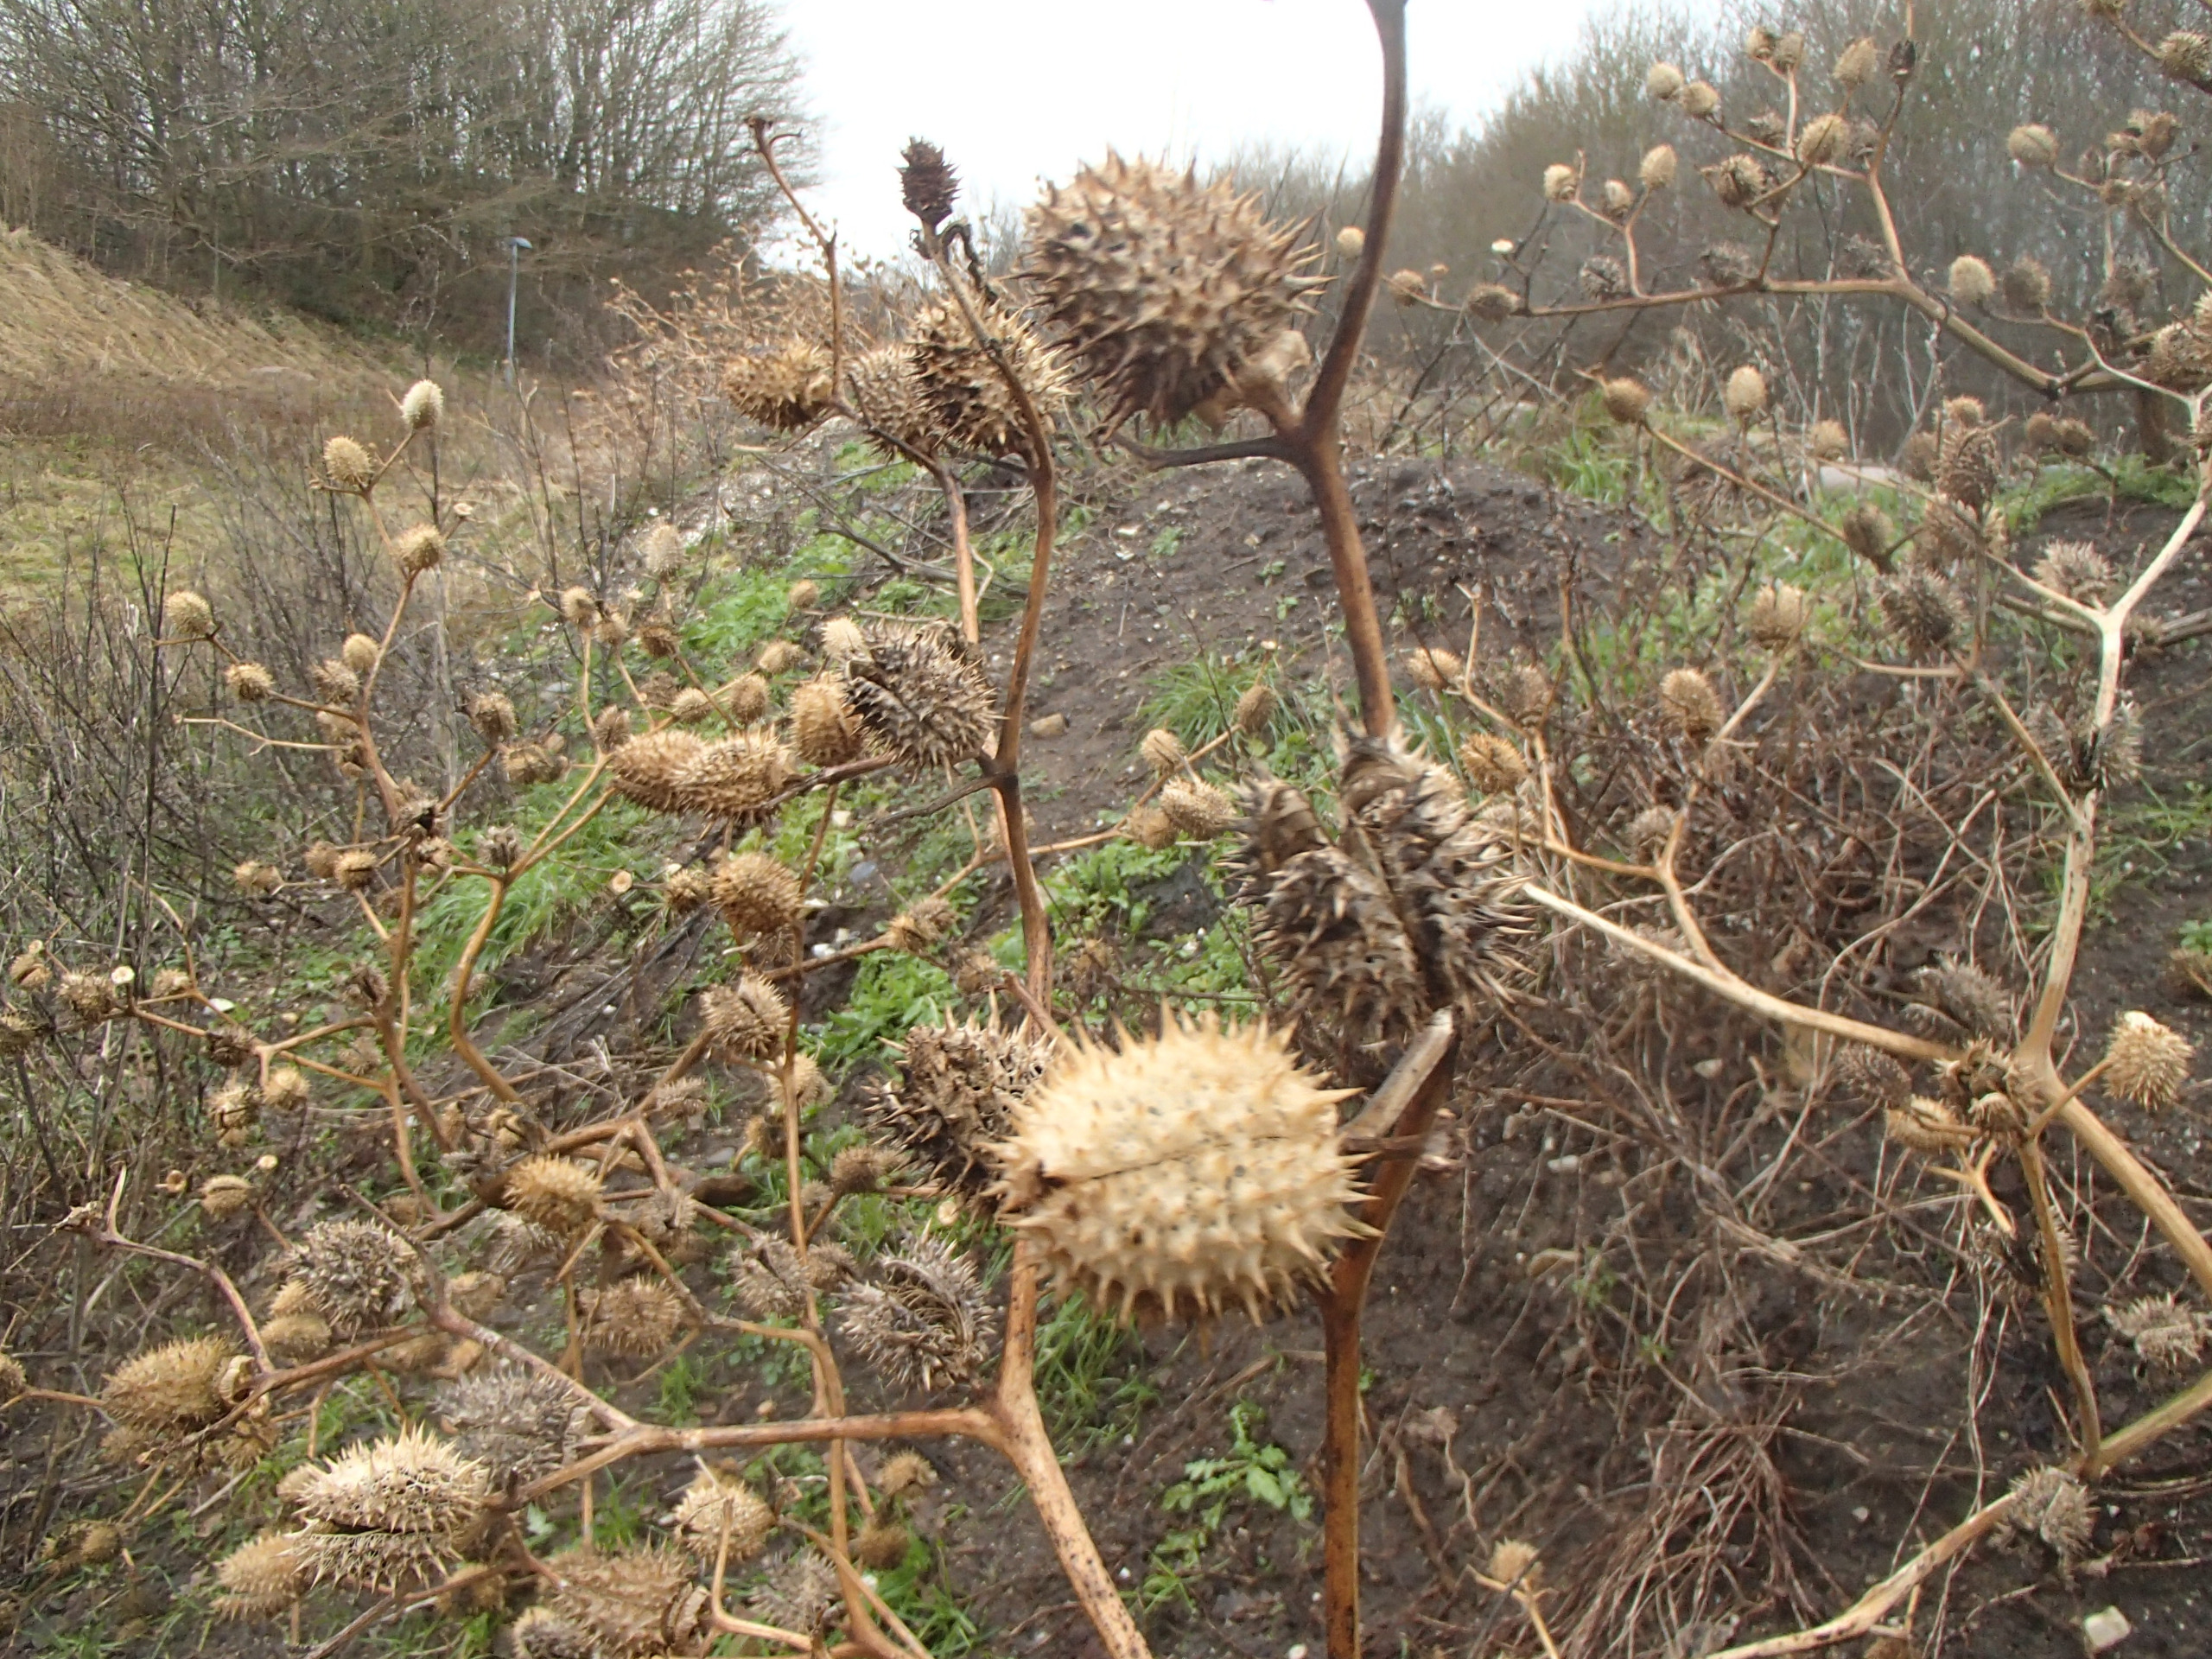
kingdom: Plantae
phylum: Tracheophyta
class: Magnoliopsida
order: Solanales
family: Solanaceae
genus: Datura
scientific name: Datura stramonium
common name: Pigæble
